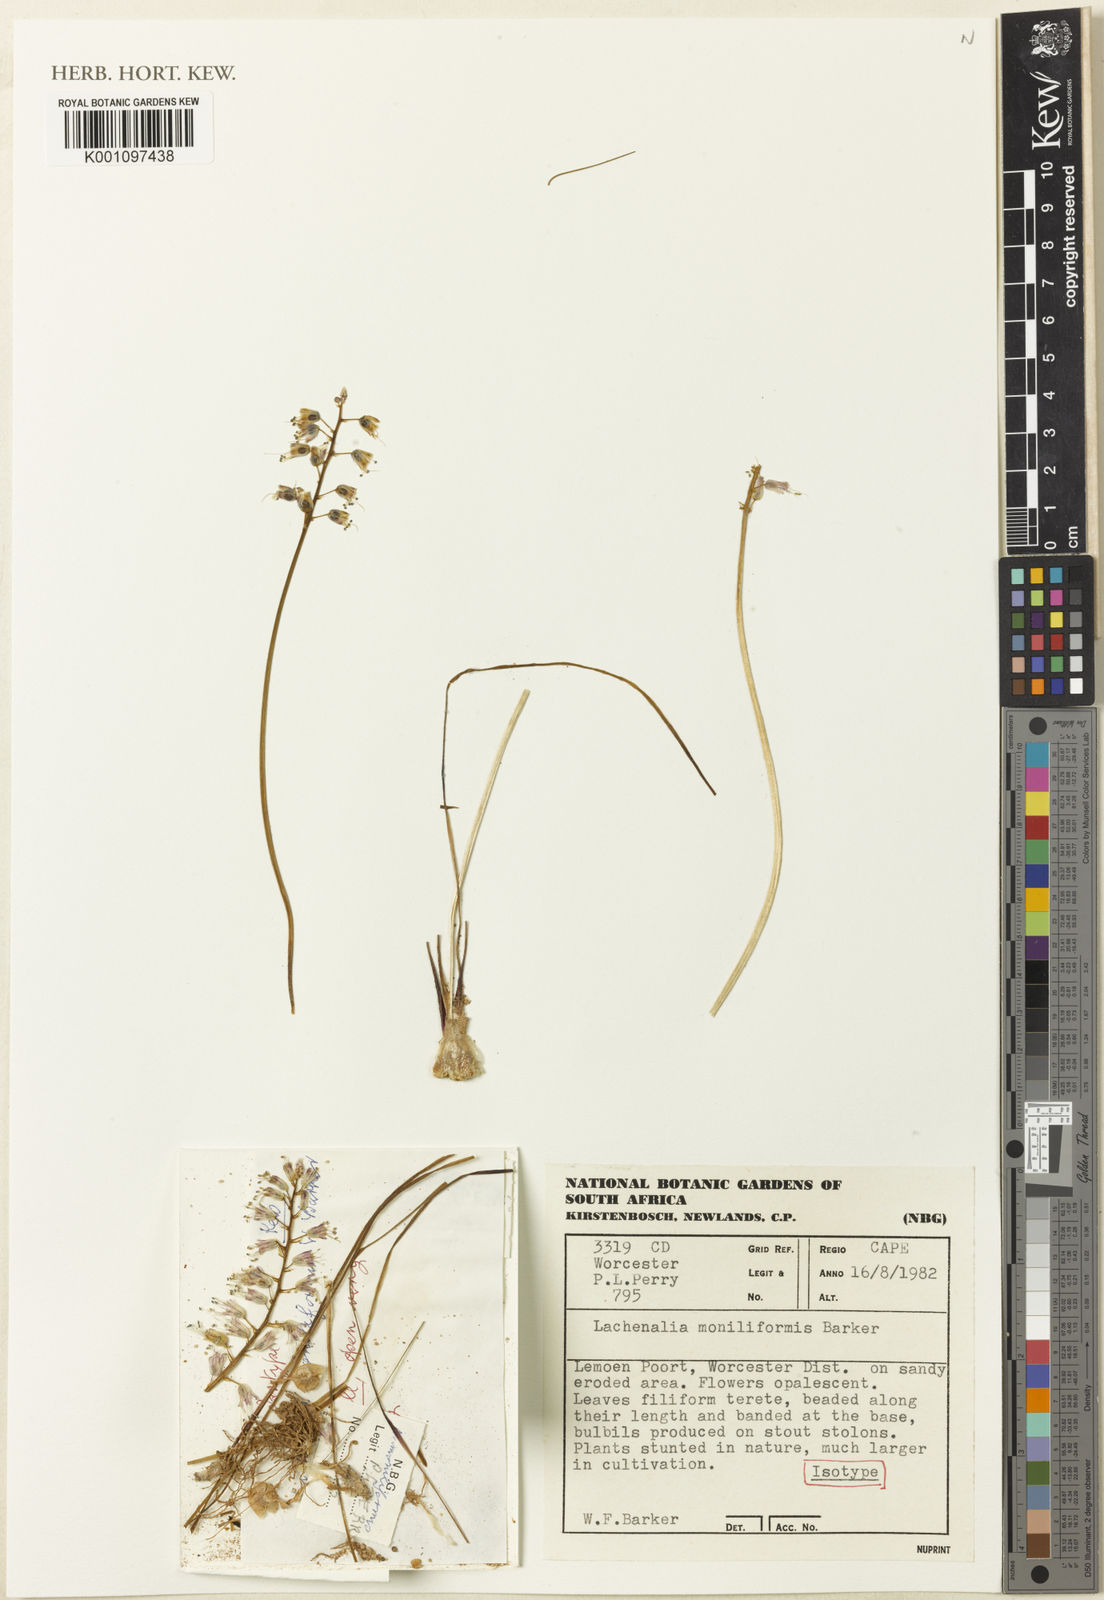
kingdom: Plantae
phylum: Tracheophyta
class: Liliopsida
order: Asparagales
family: Asparagaceae
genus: Lachenalia
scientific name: Lachenalia moniliformis
